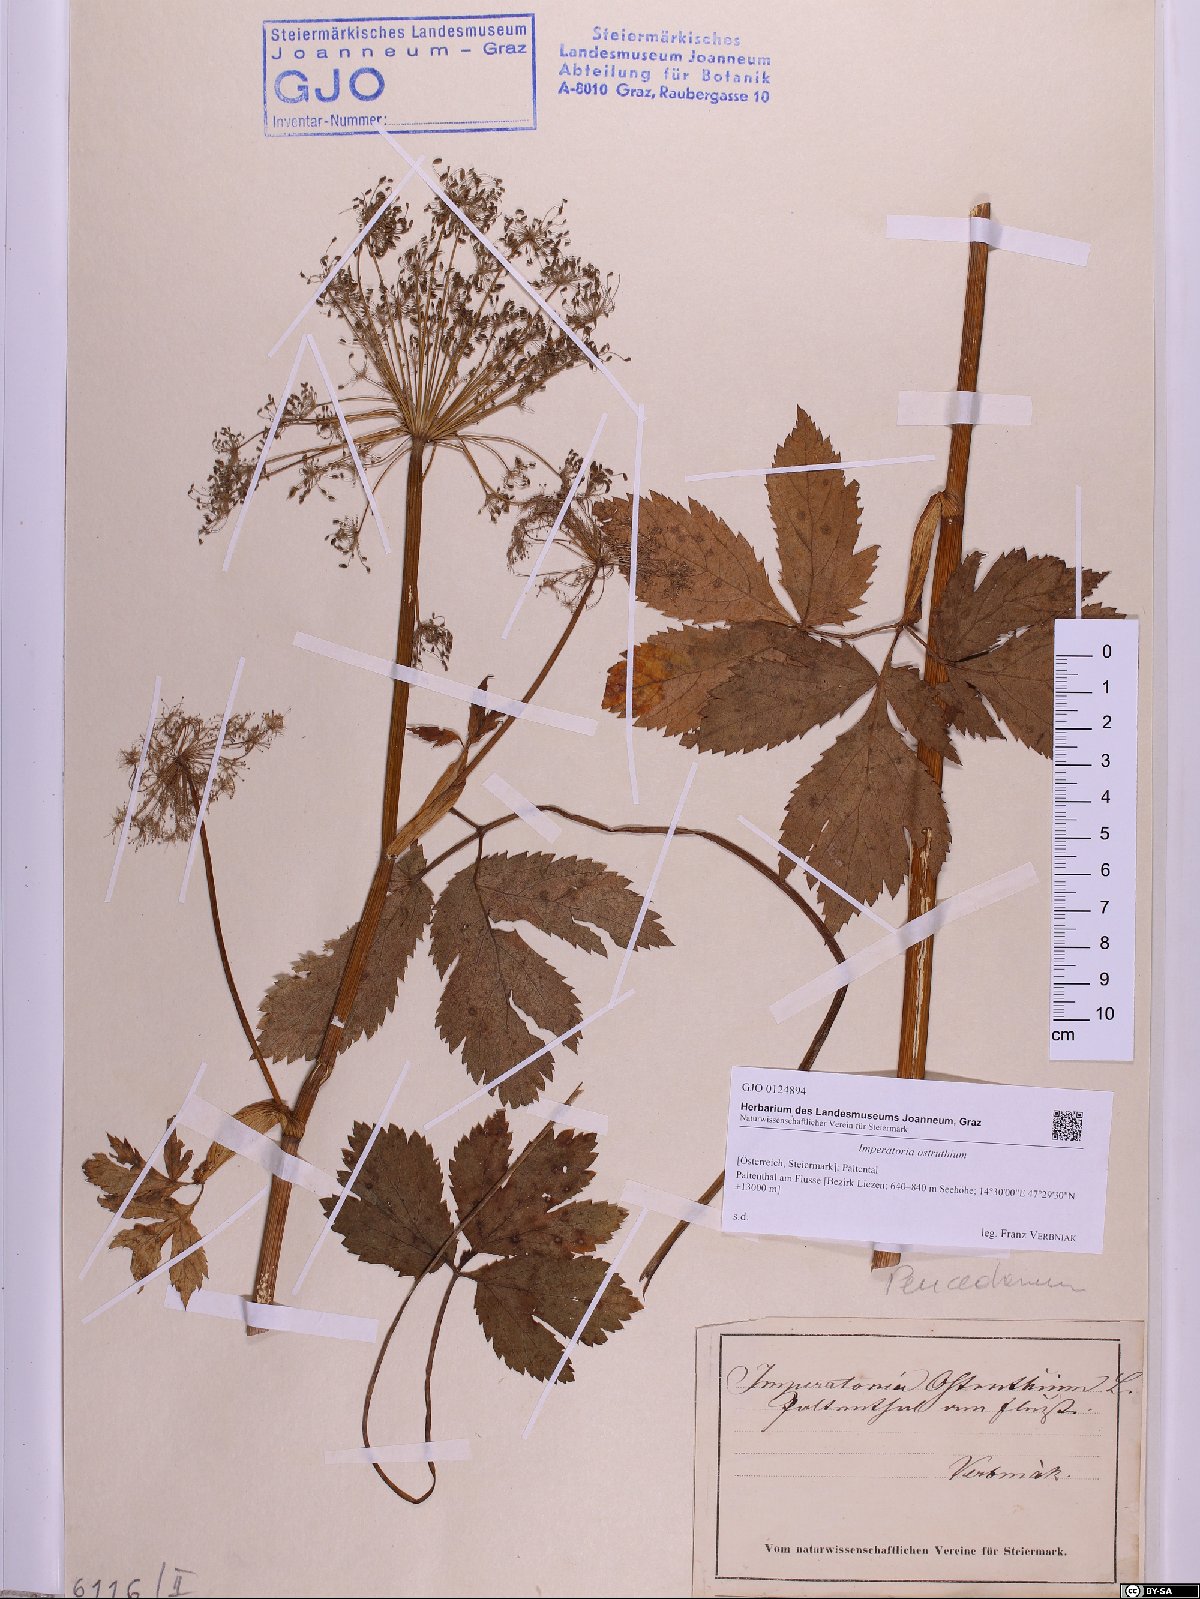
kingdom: Plantae
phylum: Tracheophyta
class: Magnoliopsida
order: Apiales
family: Apiaceae
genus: Imperatoria
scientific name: Imperatoria ostruthium
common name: Masterwort
